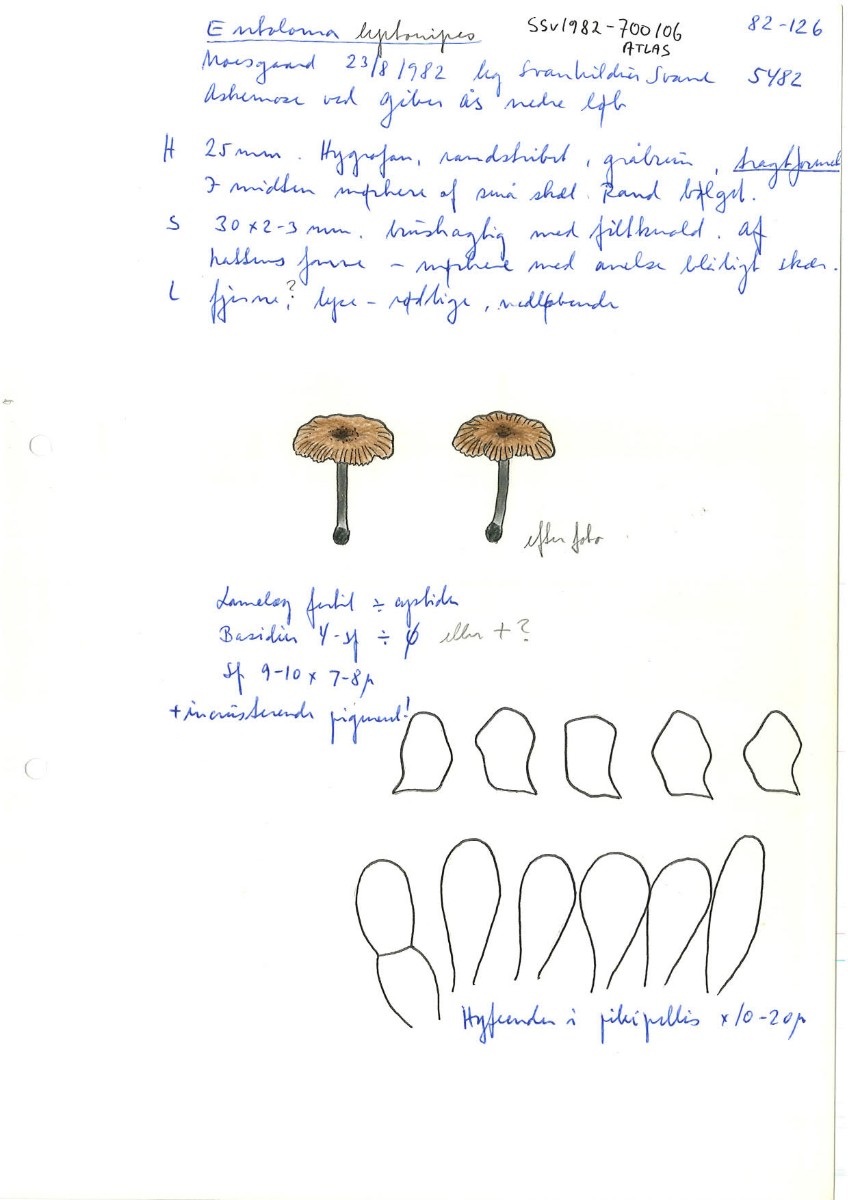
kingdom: Fungi
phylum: Basidiomycota
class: Agaricomycetes
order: Agaricales
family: Entolomataceae
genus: Entoloma
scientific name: Entoloma incarnatofuscescens
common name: tragt-rødblad
